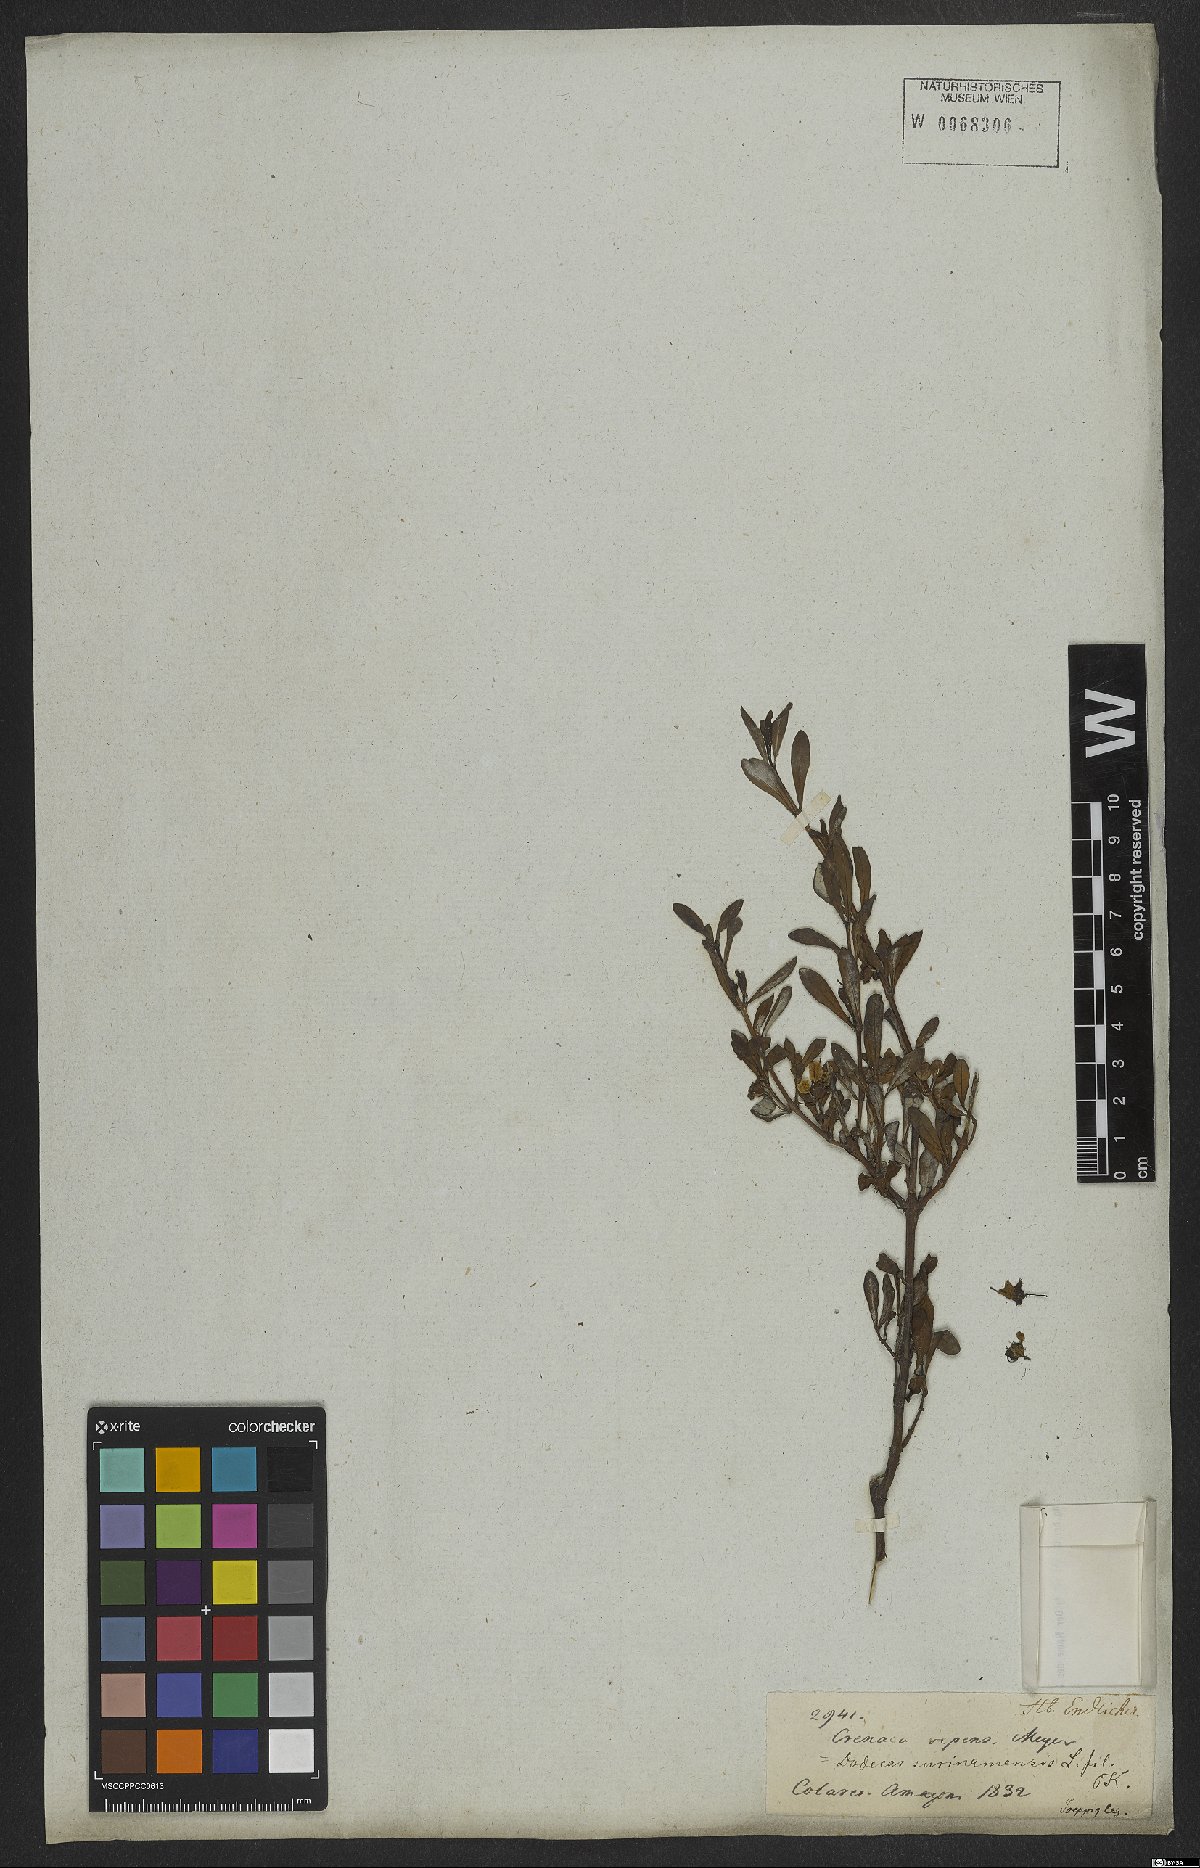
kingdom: Plantae
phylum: Tracheophyta
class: Magnoliopsida
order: Myrtales
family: Lythraceae
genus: Ammannia
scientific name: Ammannia maritima
